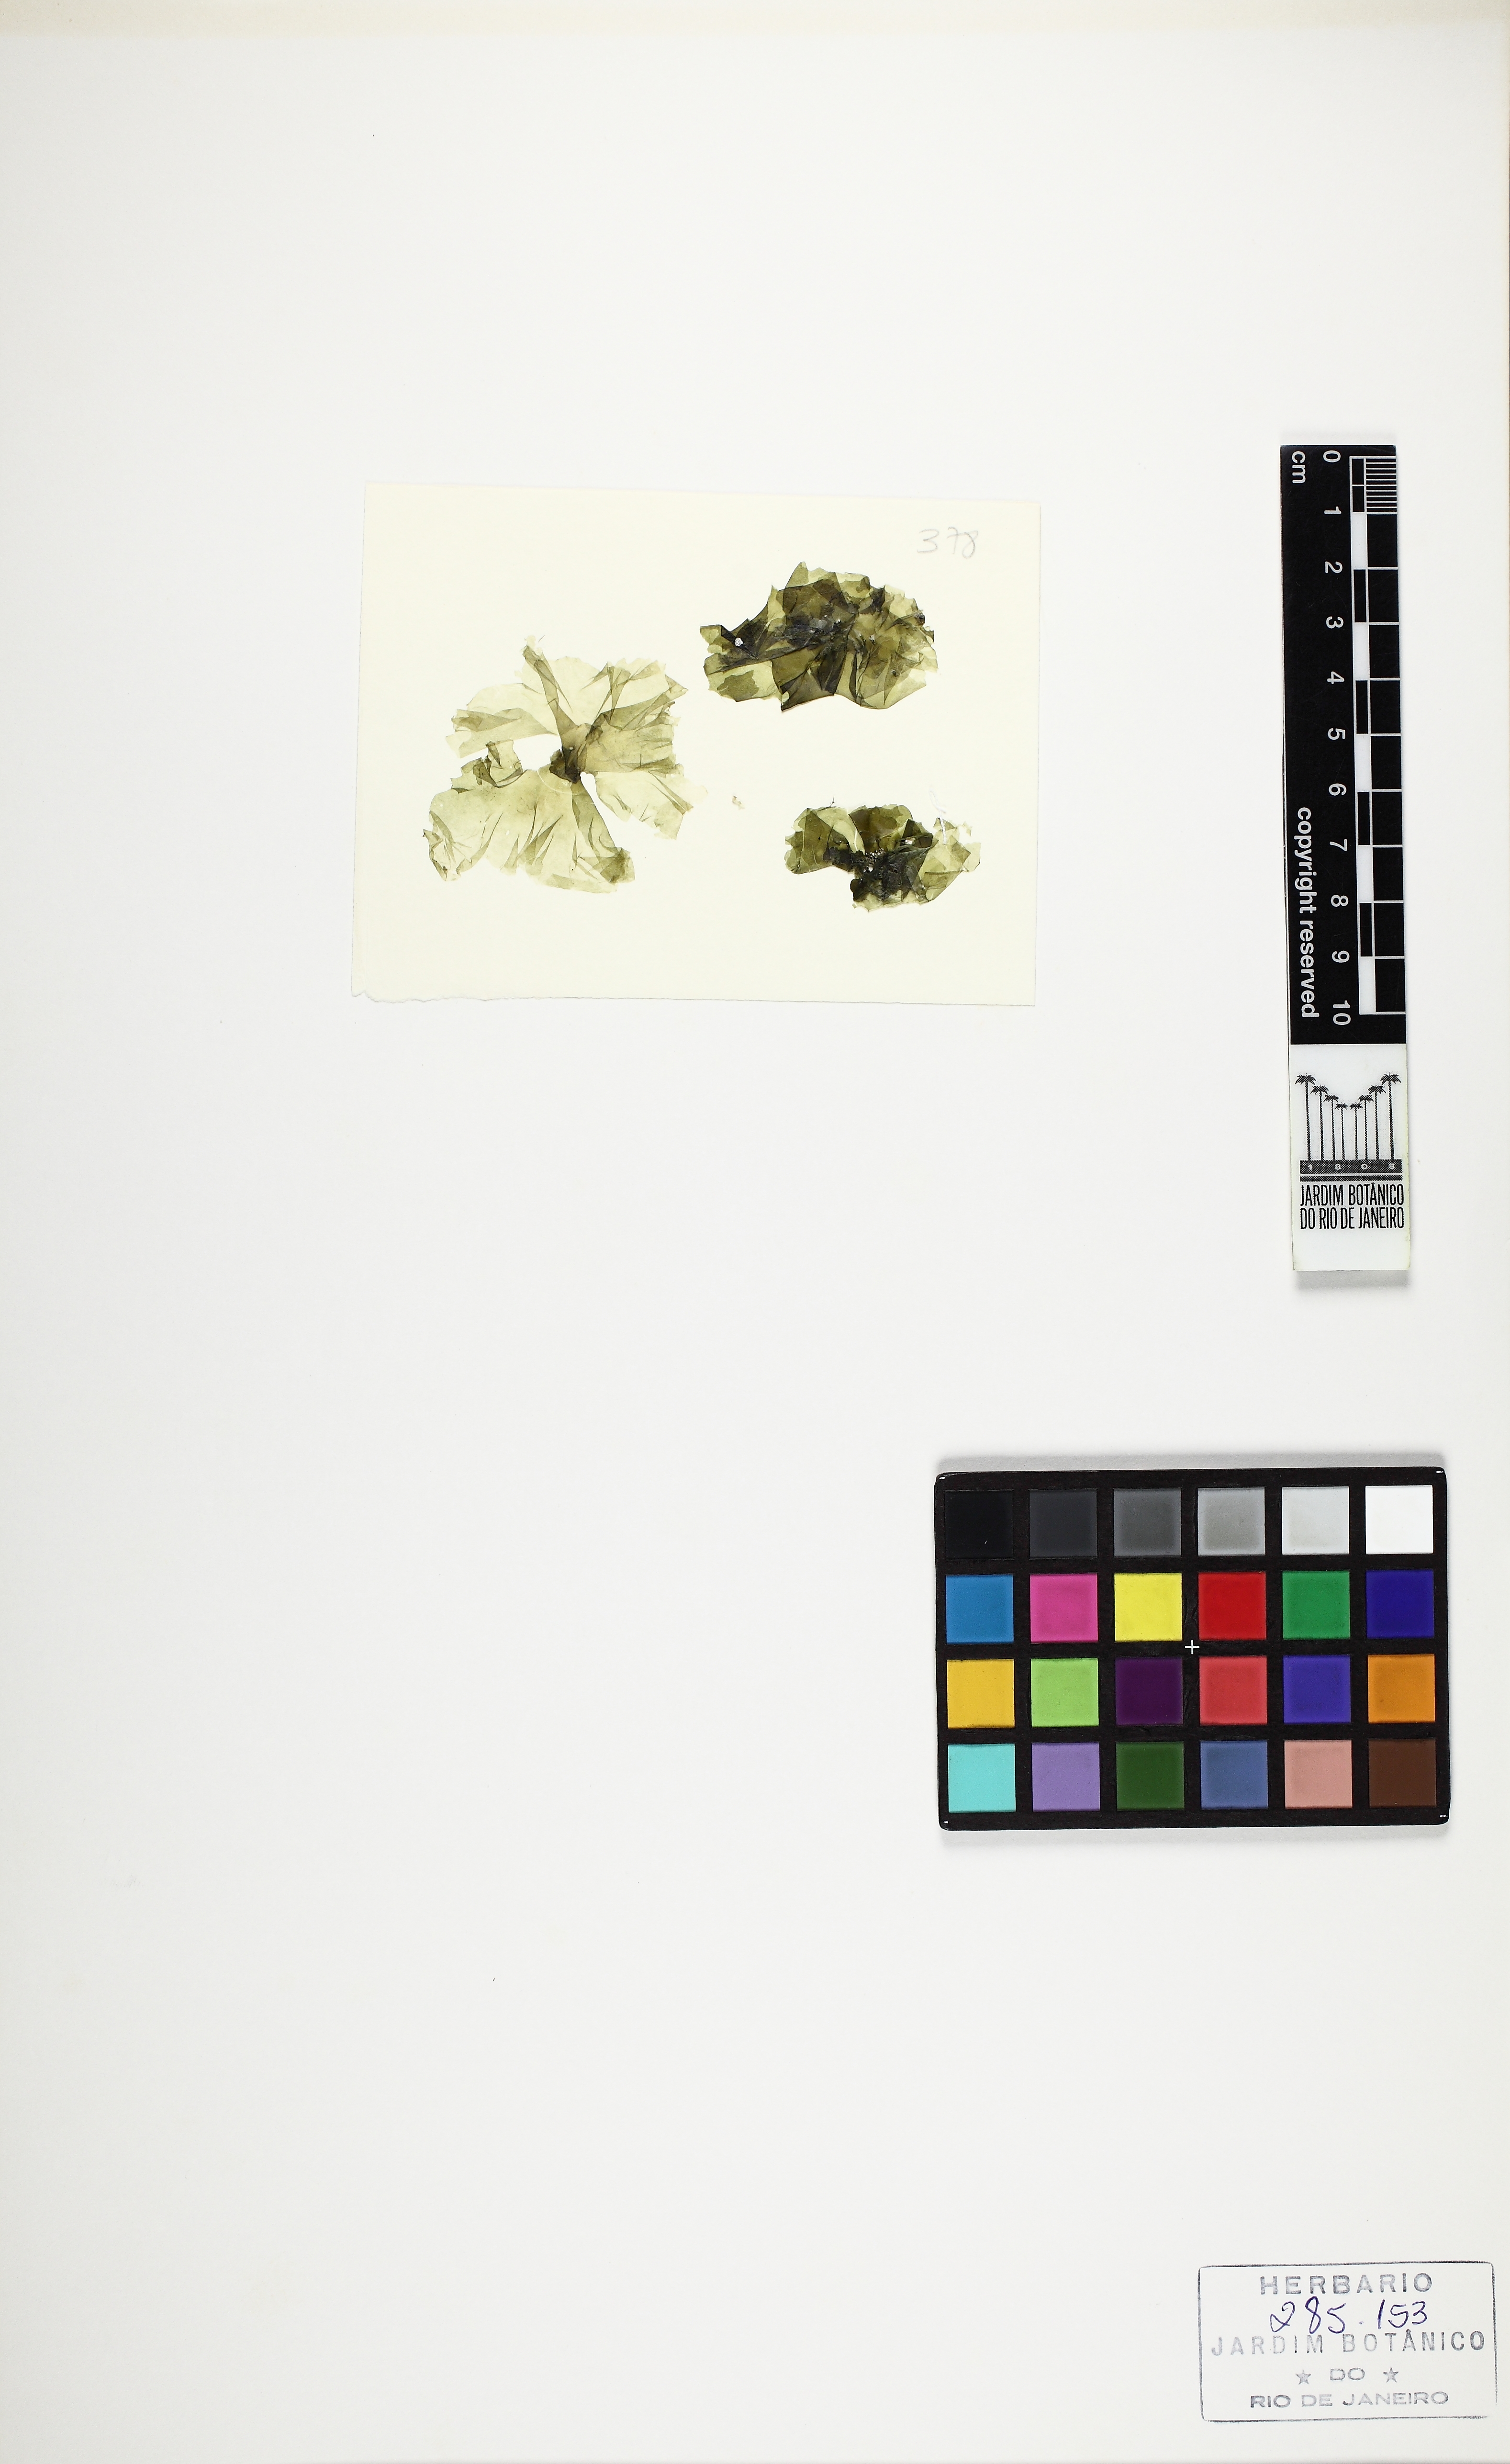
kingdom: Plantae
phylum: Chlorophyta
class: Ulvophyceae
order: Ulvales
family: Ulvaceae
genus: Ulva
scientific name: Ulva rigida
